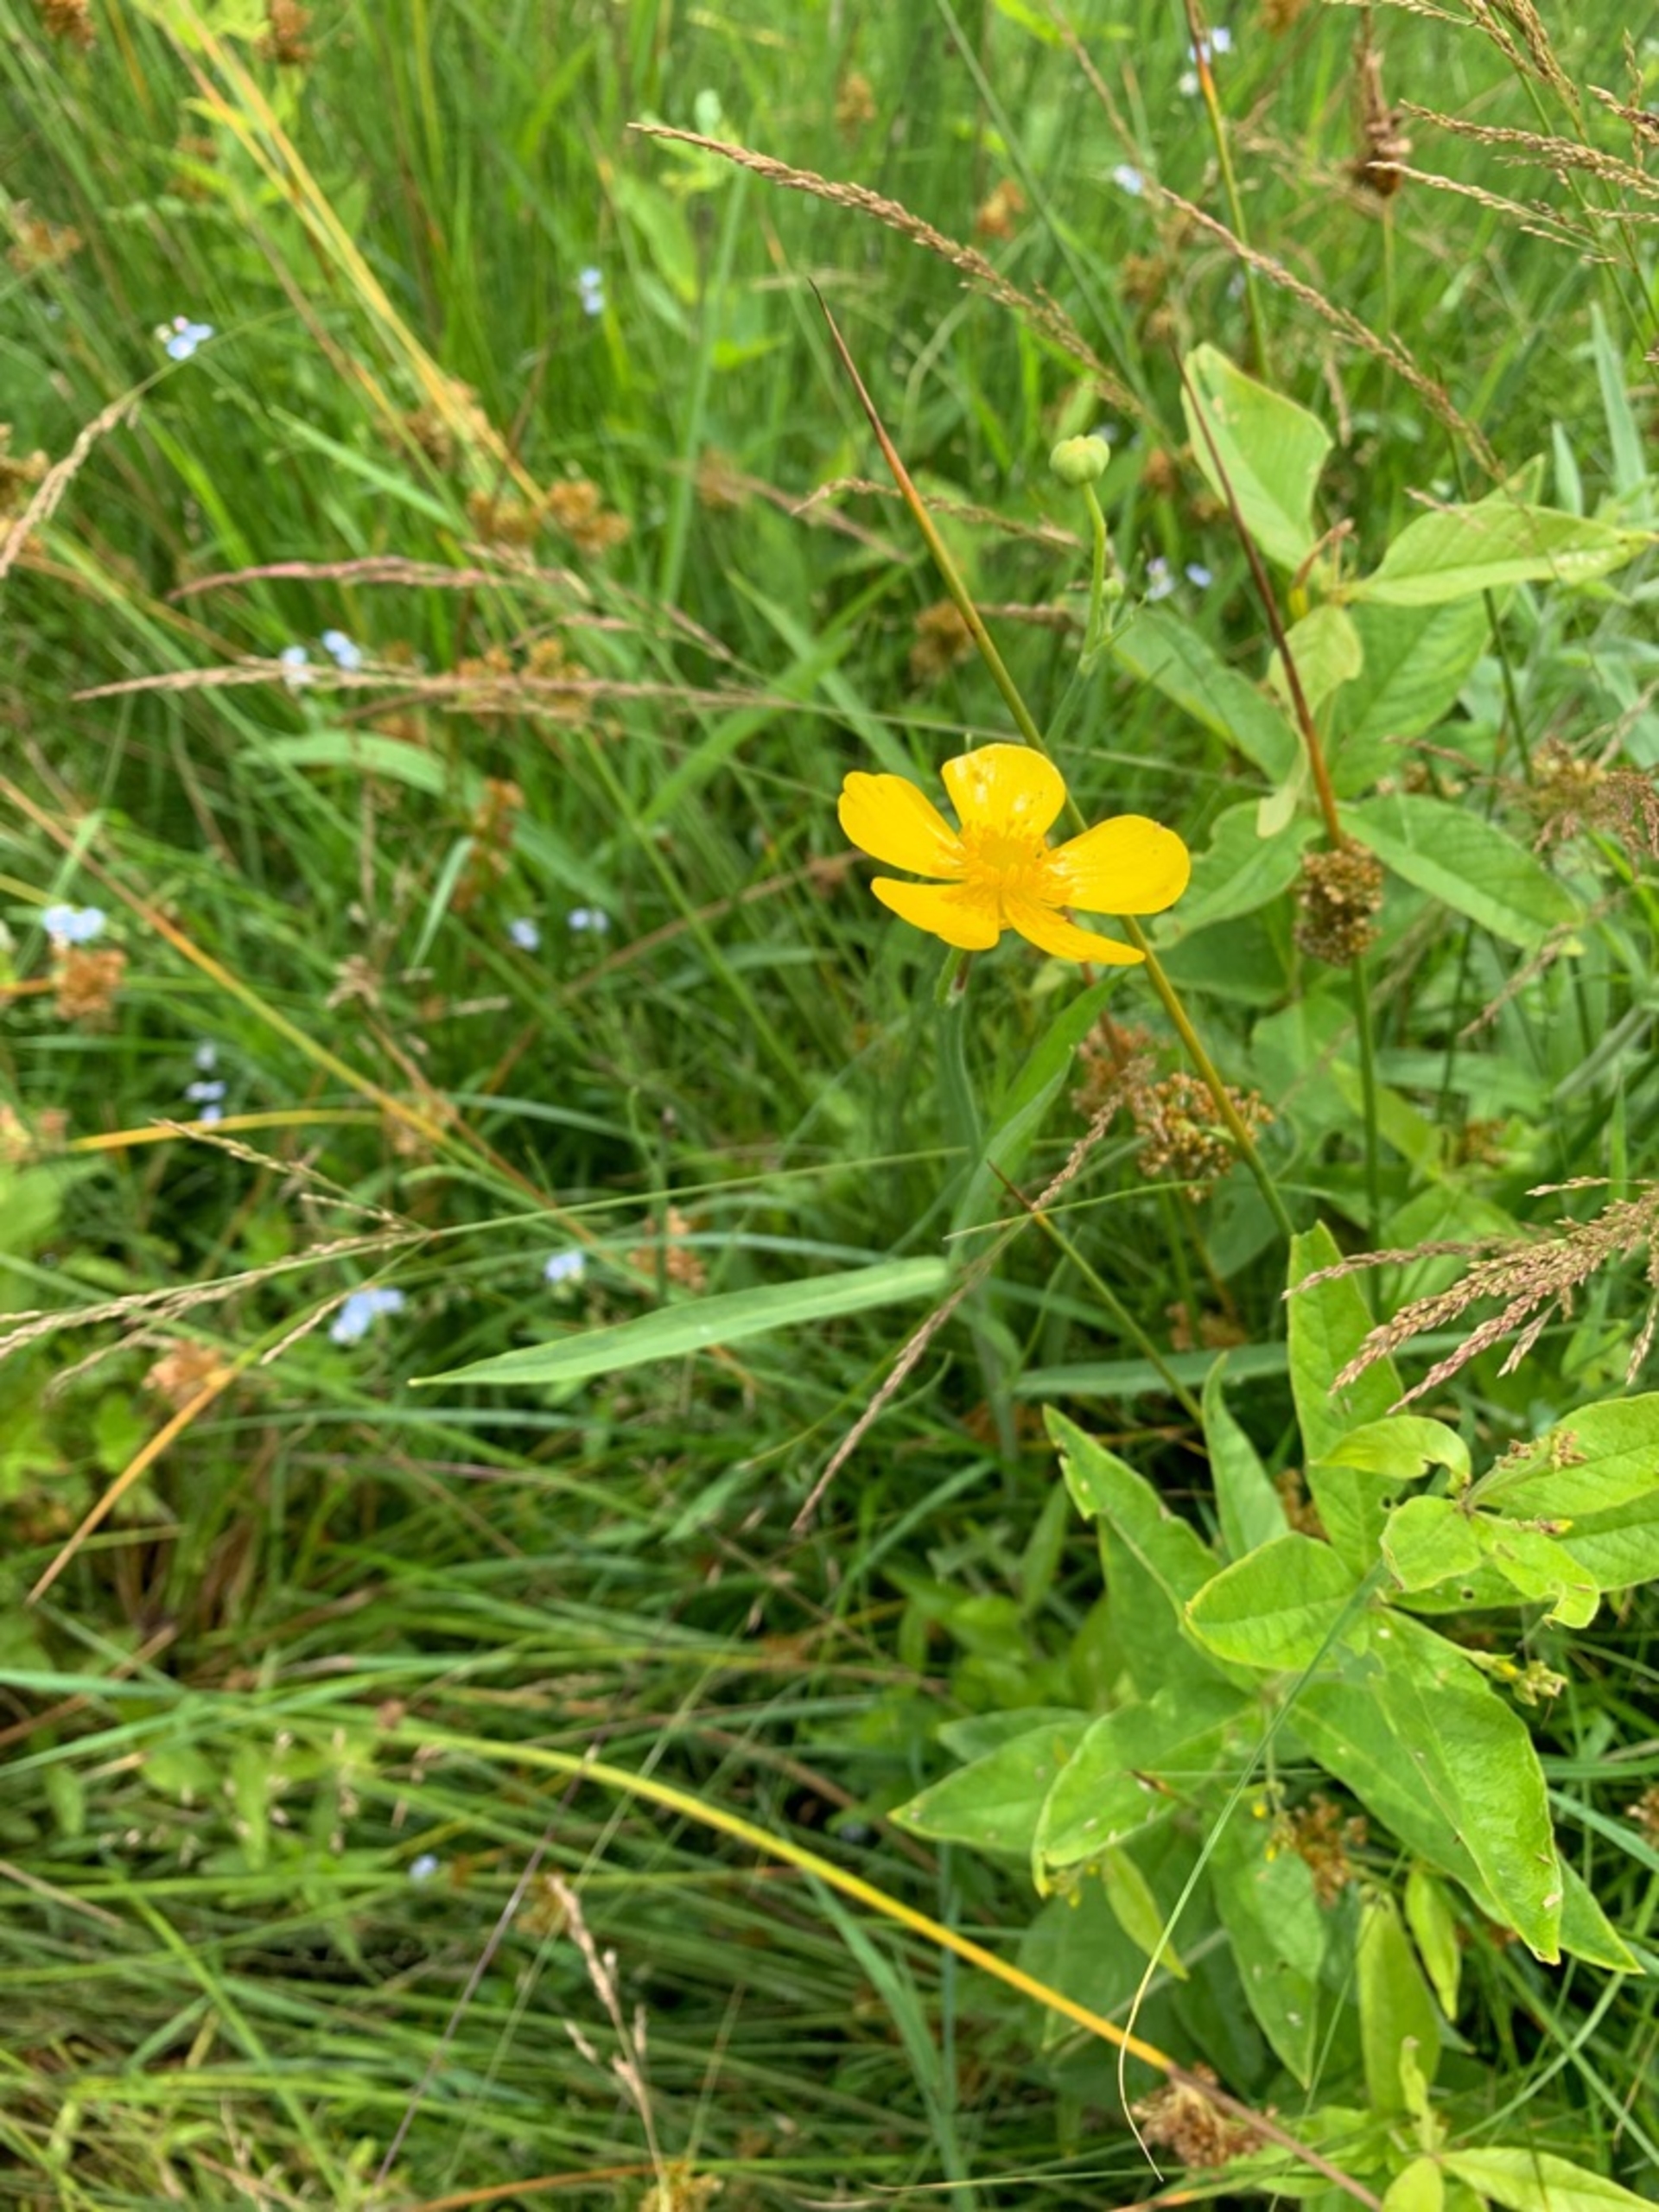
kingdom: Plantae
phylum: Tracheophyta
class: Magnoliopsida
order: Ranunculales
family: Ranunculaceae
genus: Ranunculus
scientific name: Ranunculus lingua
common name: Langbladet ranunkel
